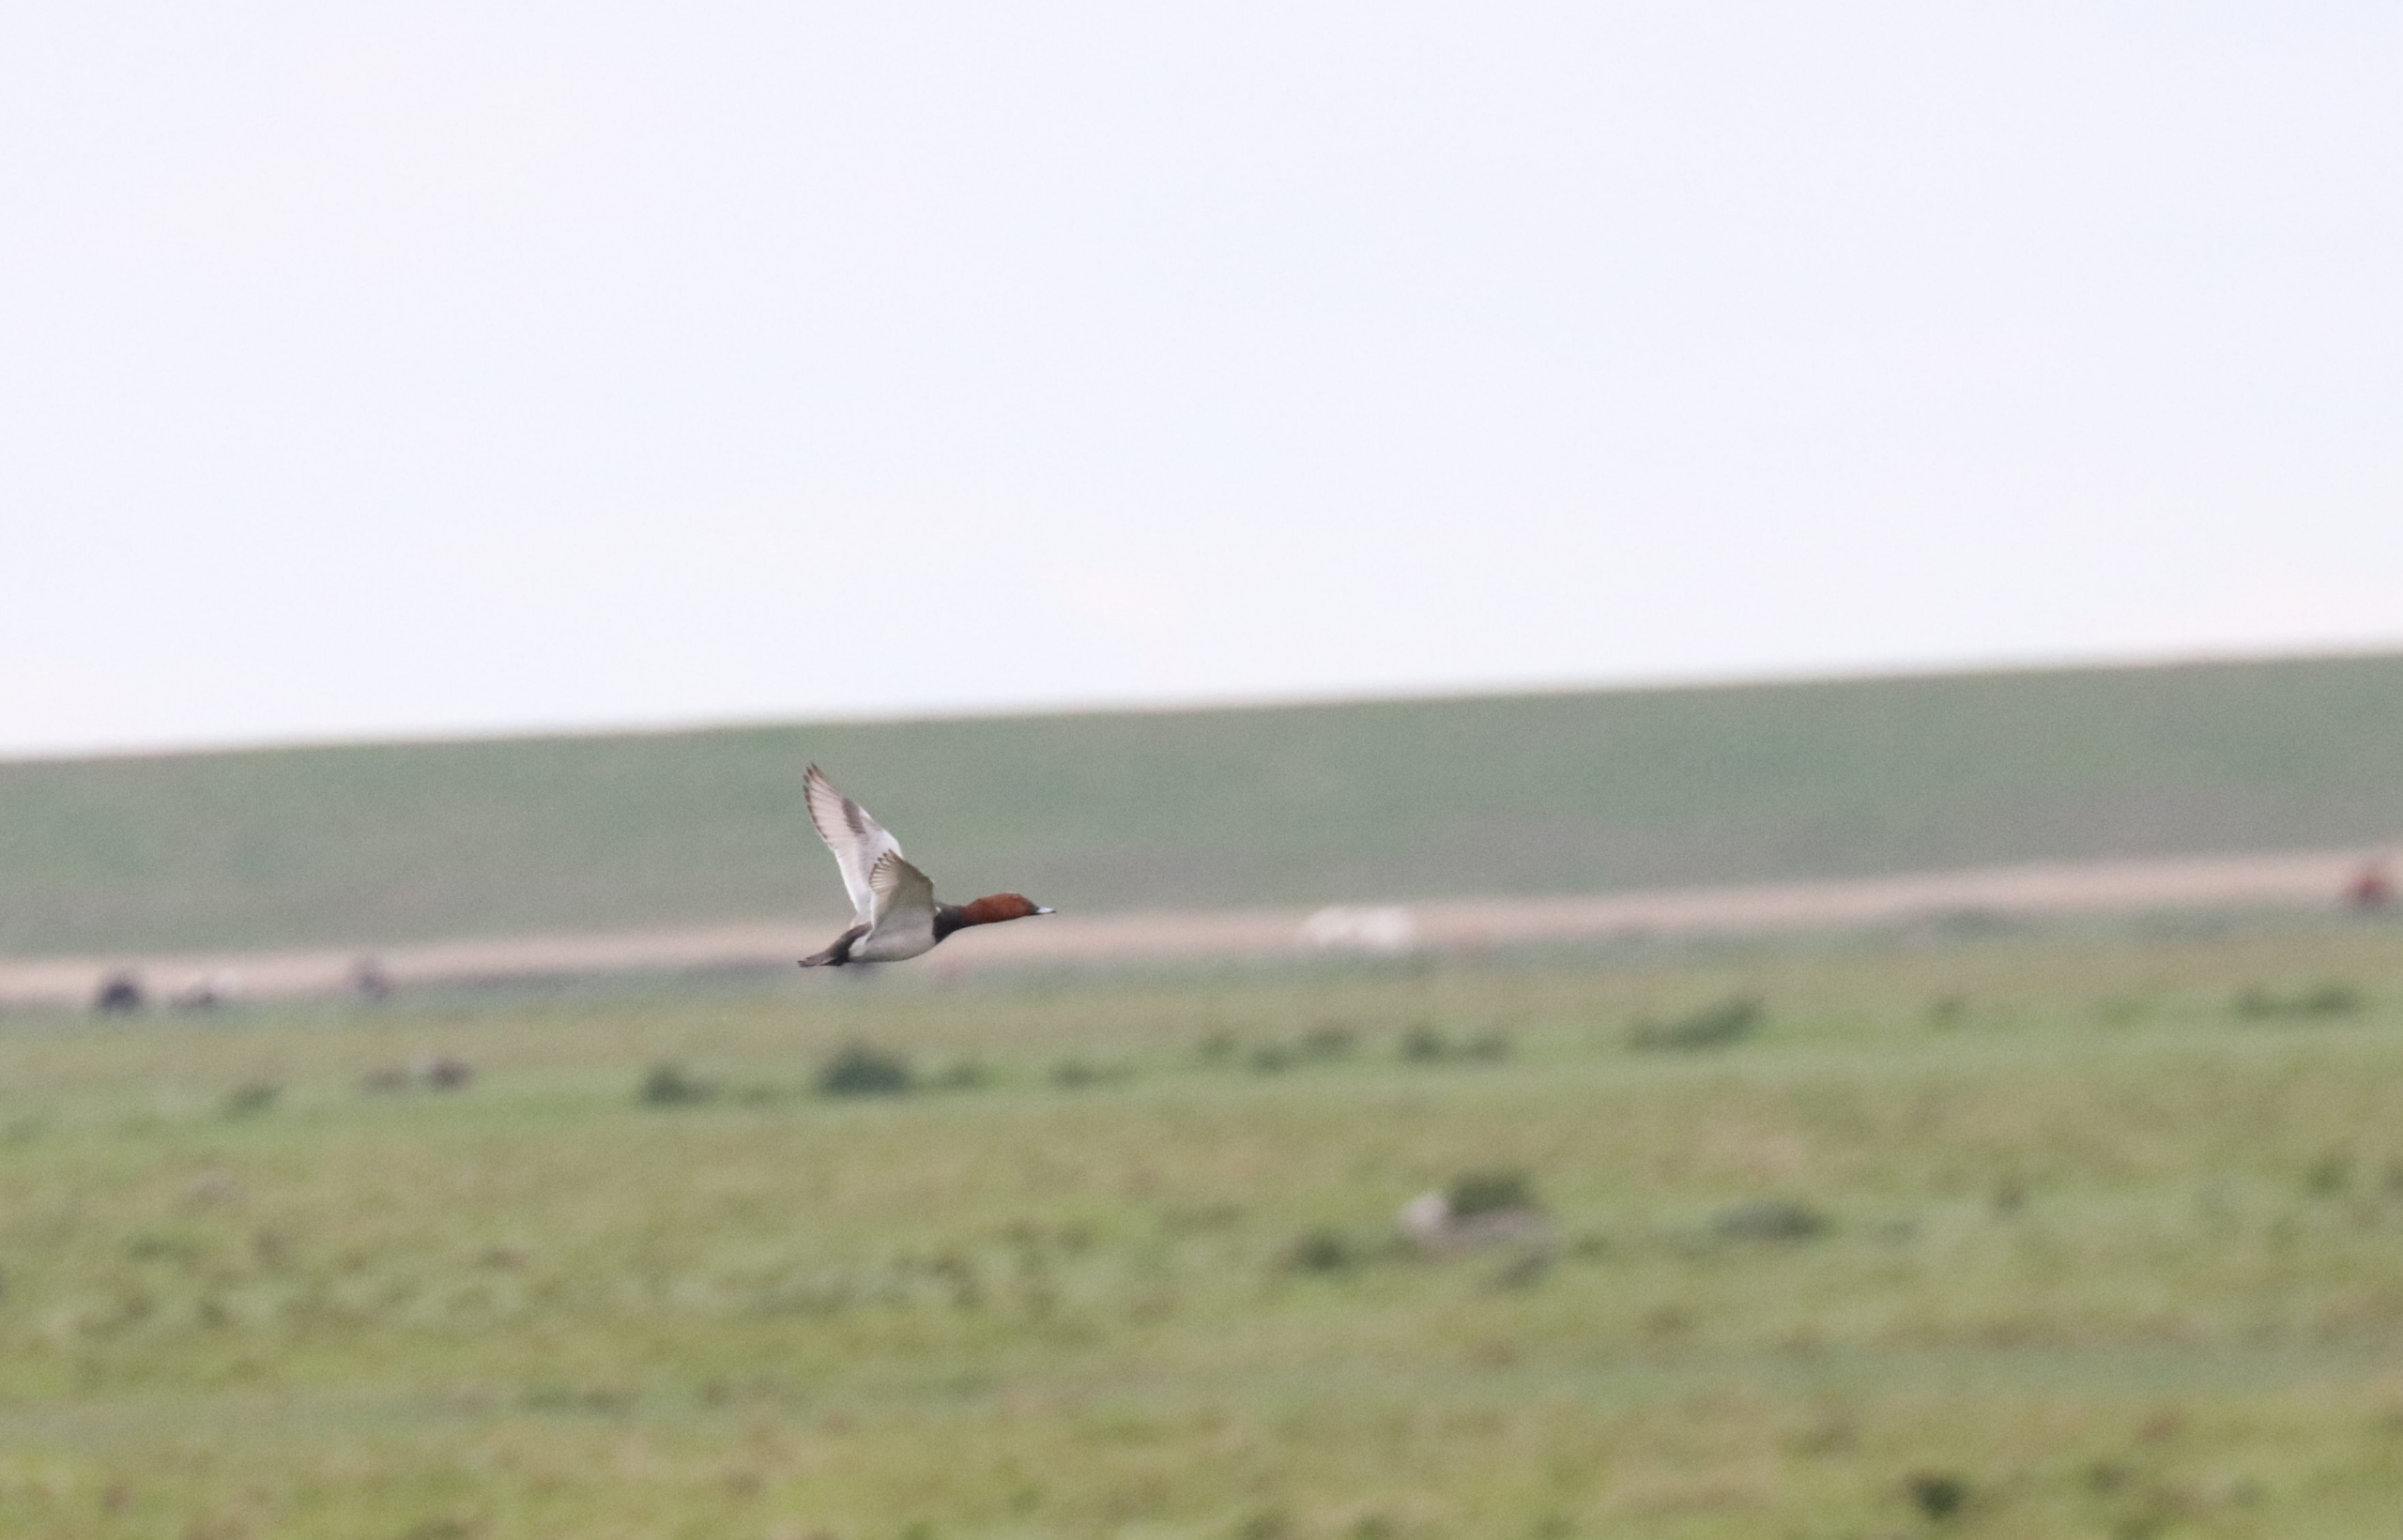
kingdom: Animalia
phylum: Chordata
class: Aves
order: Anseriformes
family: Anatidae
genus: Aythya
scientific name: Aythya ferina
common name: Taffeland
